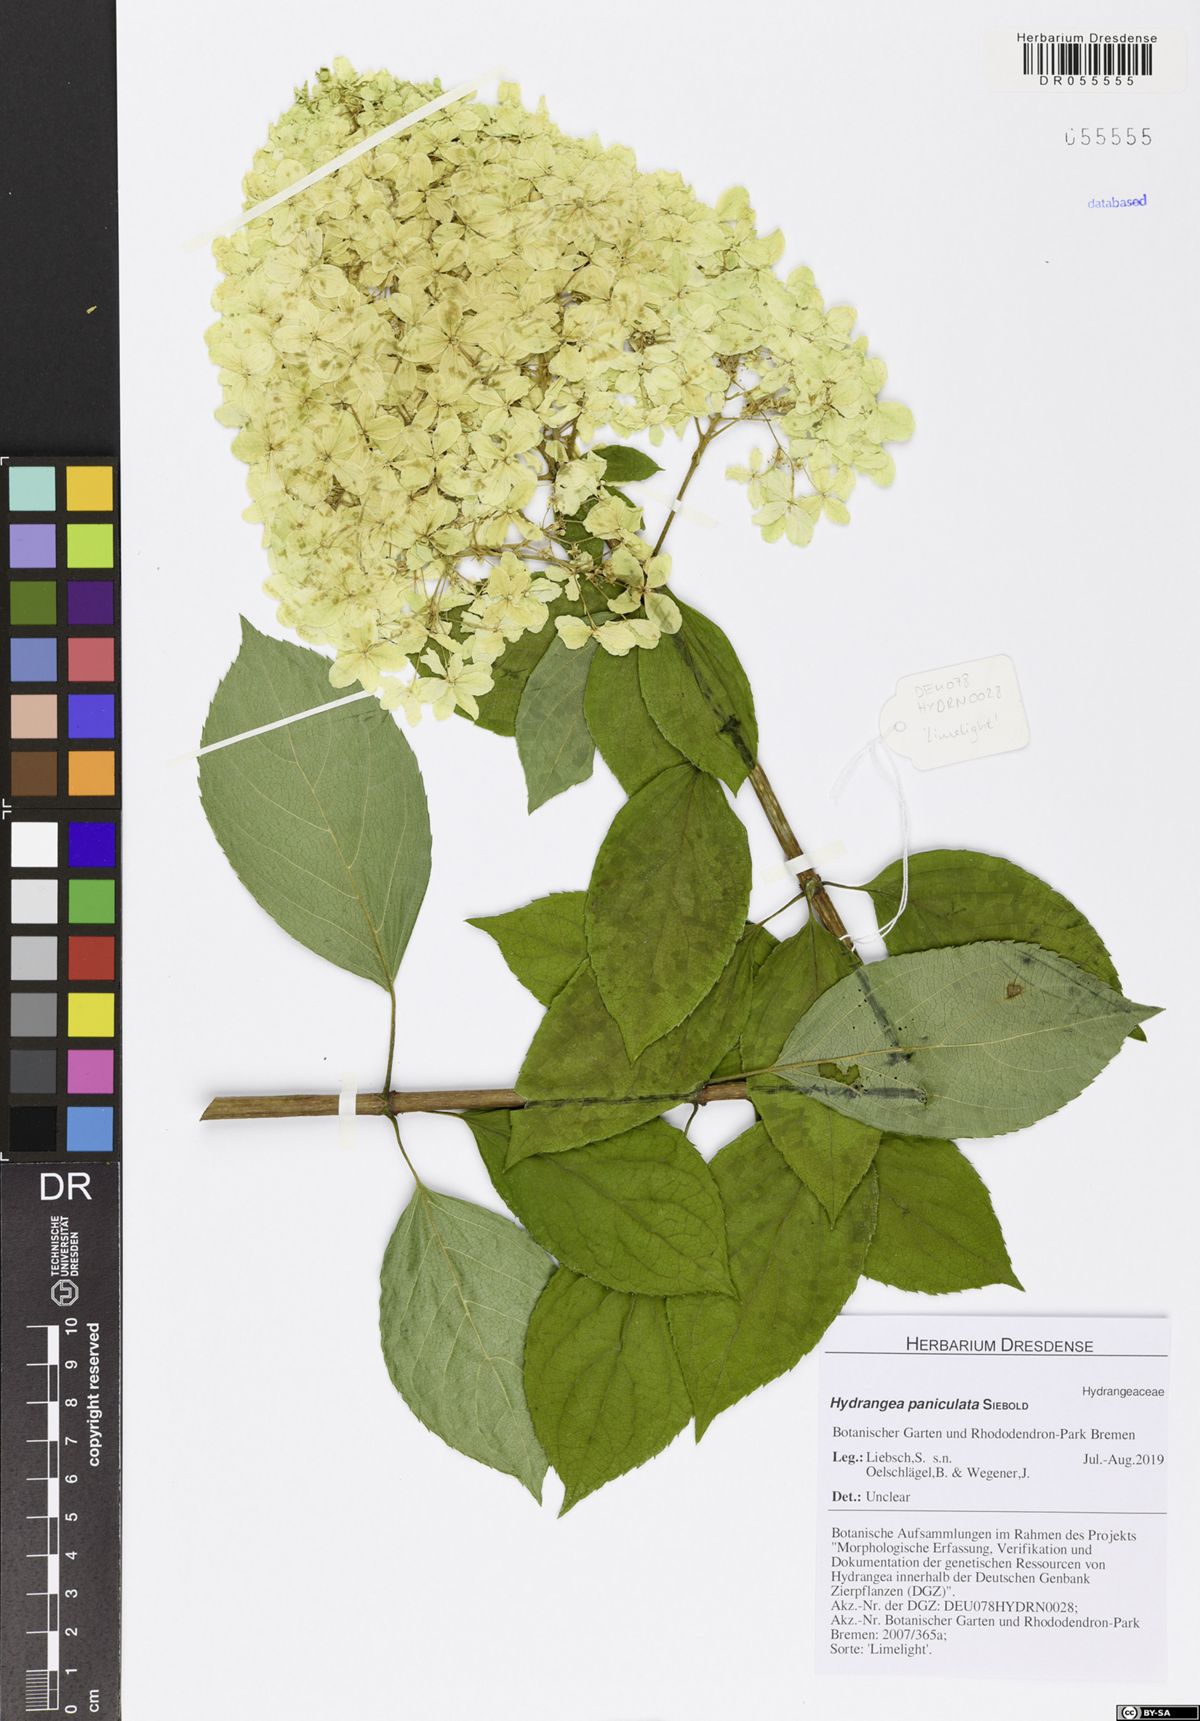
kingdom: Plantae
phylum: Tracheophyta
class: Magnoliopsida
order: Cornales
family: Hydrangeaceae
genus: Hydrangea
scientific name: Hydrangea paniculata
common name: Panicled hydrangea
